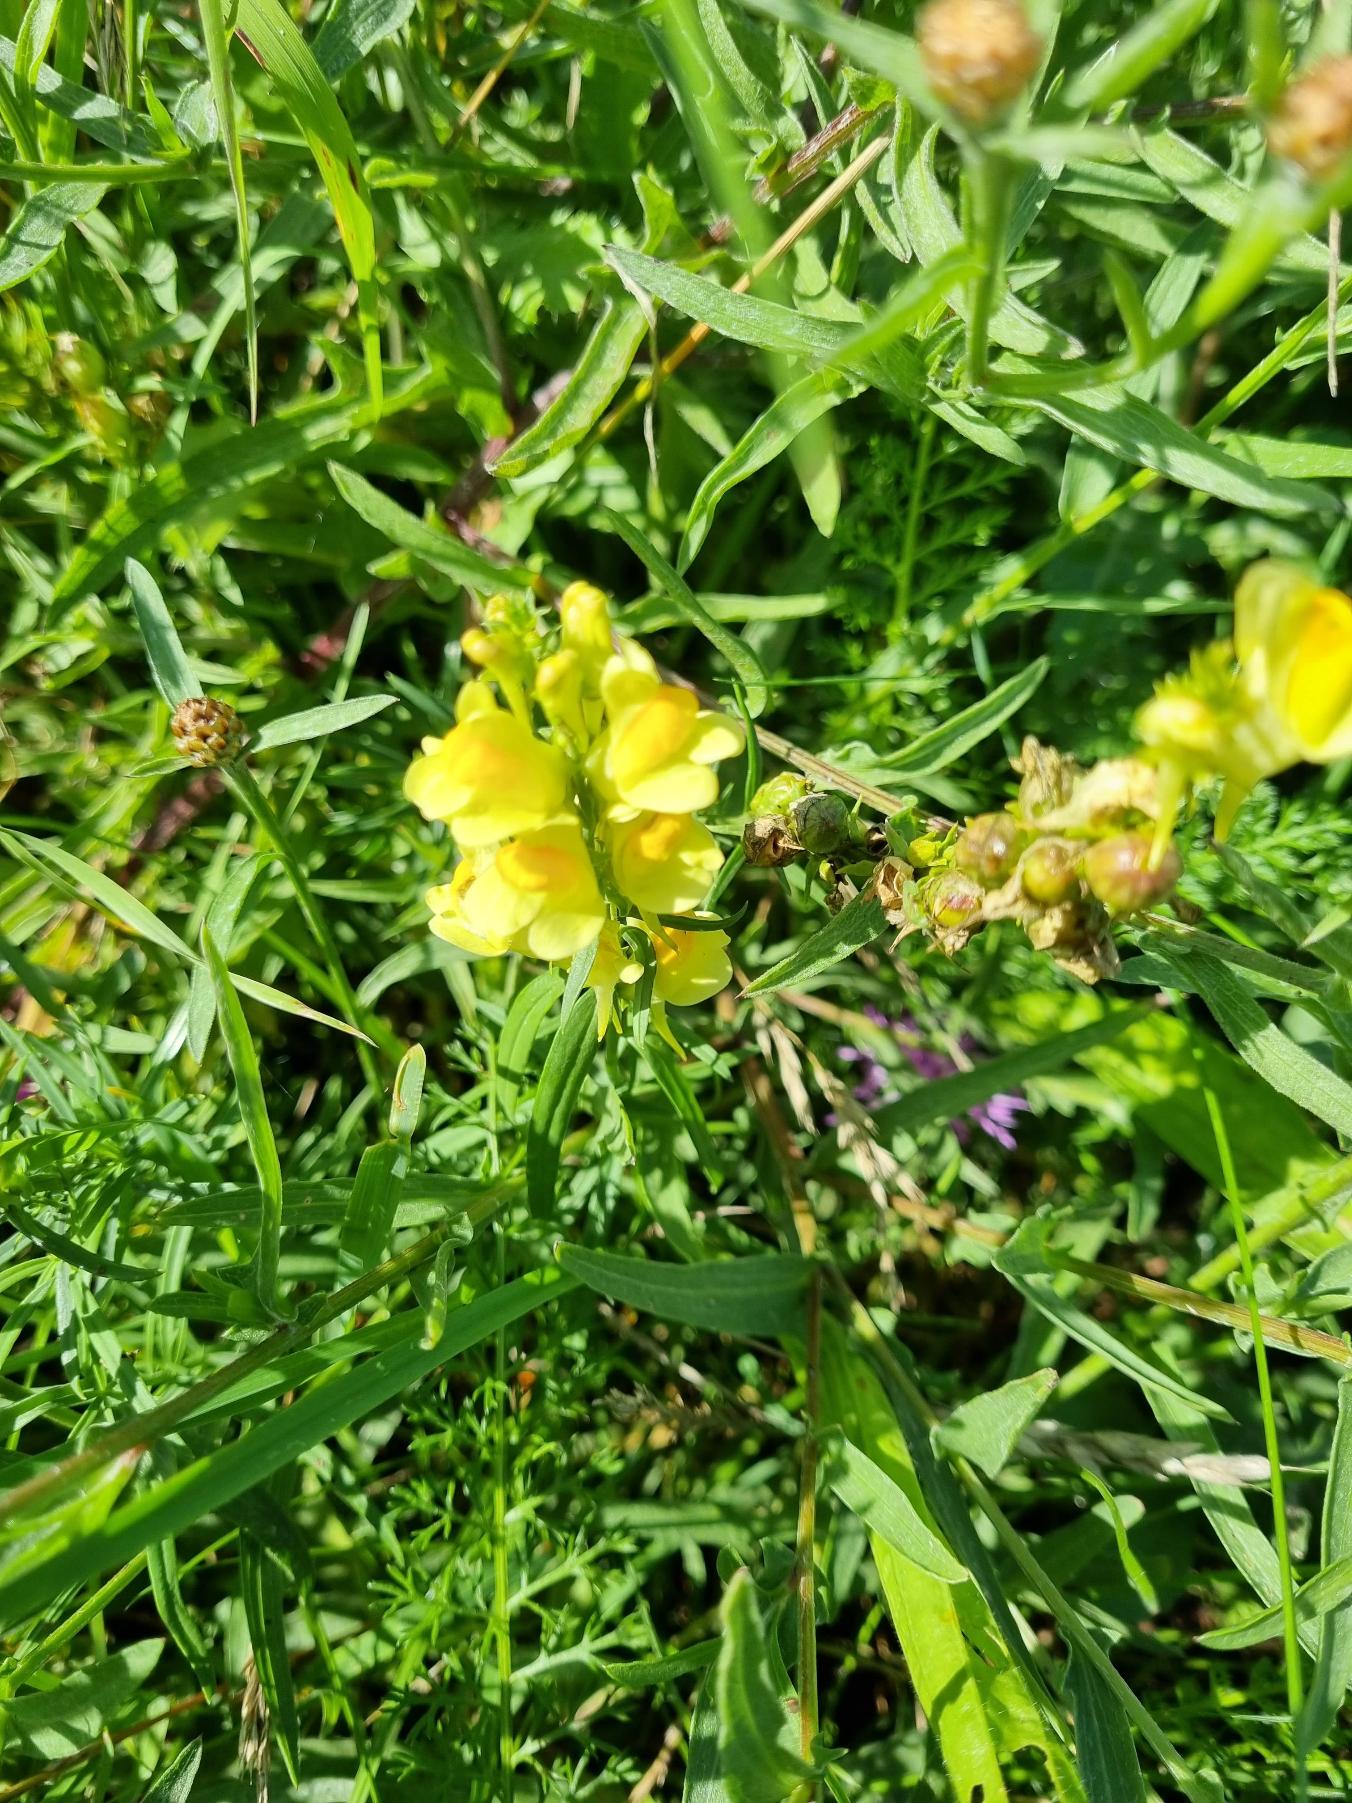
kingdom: Plantae
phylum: Tracheophyta
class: Magnoliopsida
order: Lamiales
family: Plantaginaceae
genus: Linaria
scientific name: Linaria vulgaris
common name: Almindelig torskemund
